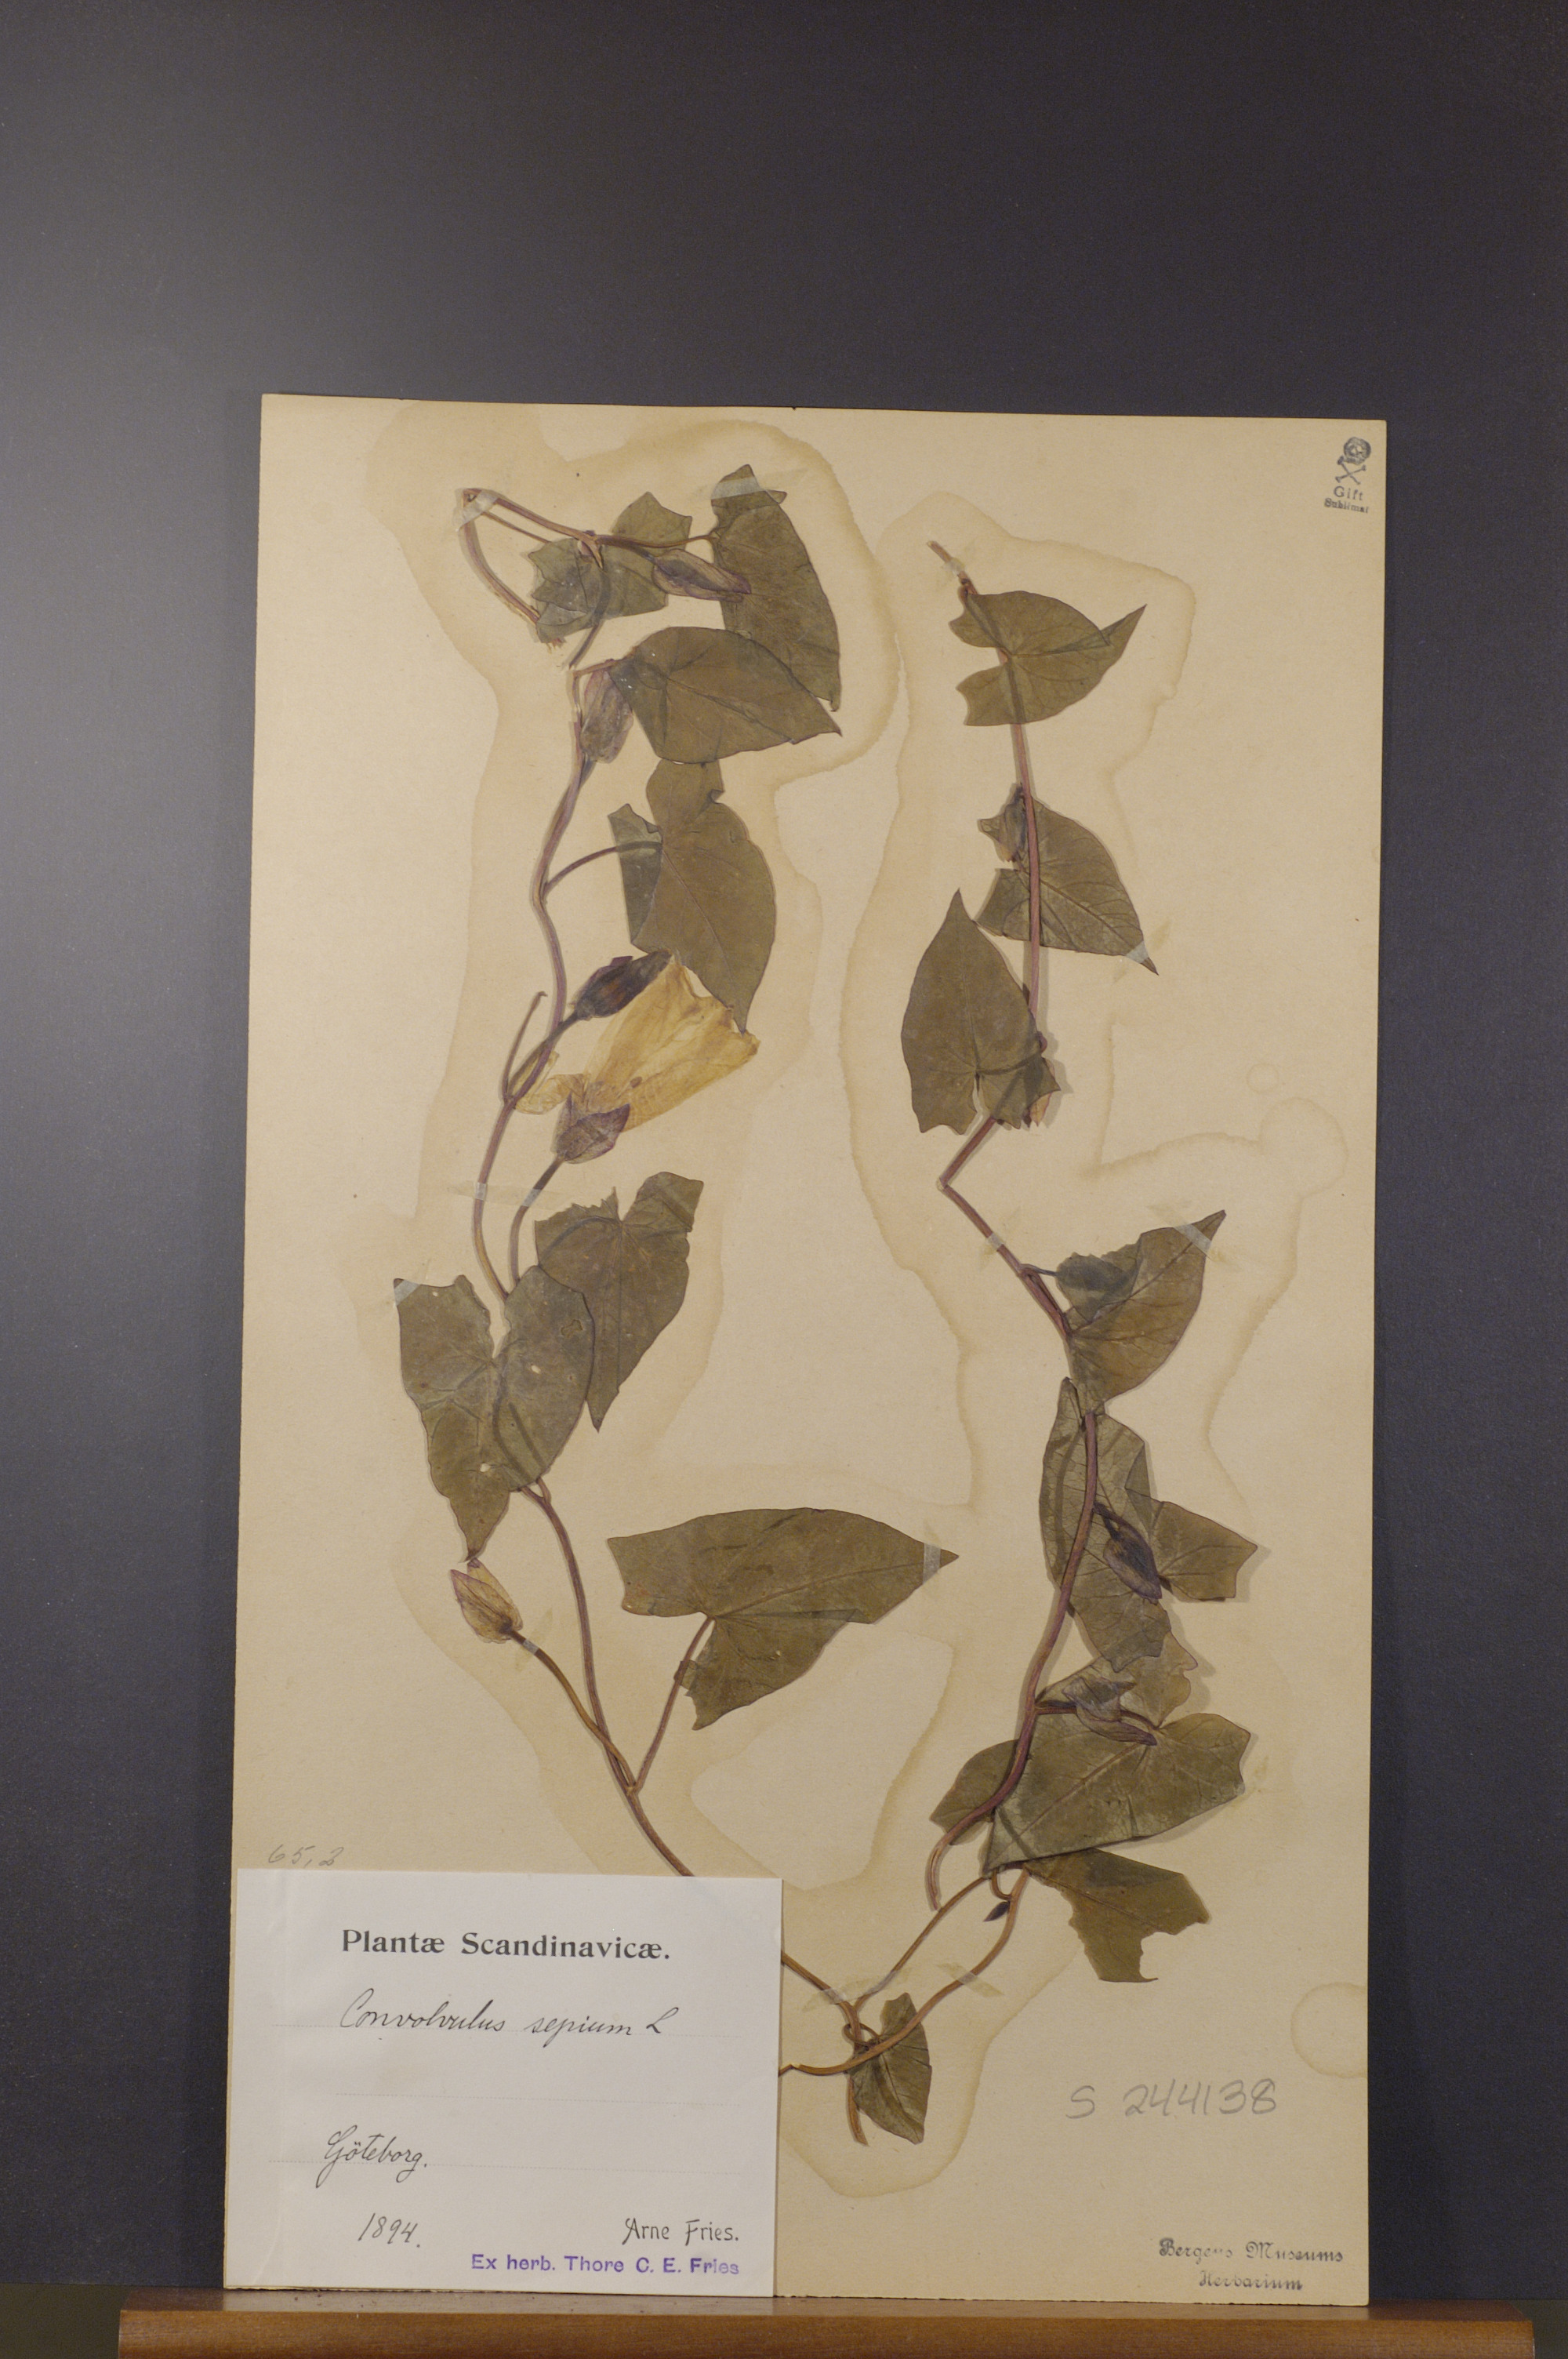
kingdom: Plantae
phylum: Tracheophyta
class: Magnoliopsida
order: Solanales
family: Convolvulaceae
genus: Calystegia
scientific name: Calystegia sepium
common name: Hedge bindweed
